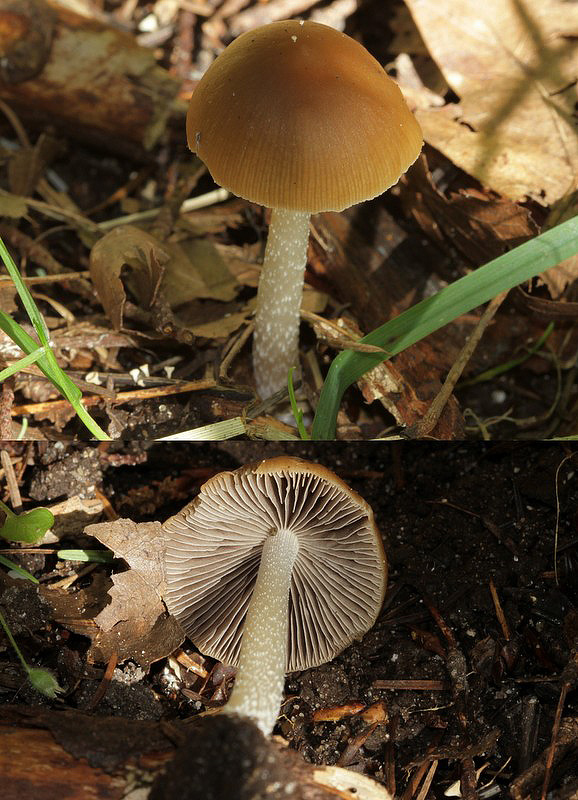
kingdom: Fungi
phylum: Basidiomycota
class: Agaricomycetes
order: Agaricales
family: Psathyrellaceae
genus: Psathyrella
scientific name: Psathyrella fusca
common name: gråbladet mørkhat
